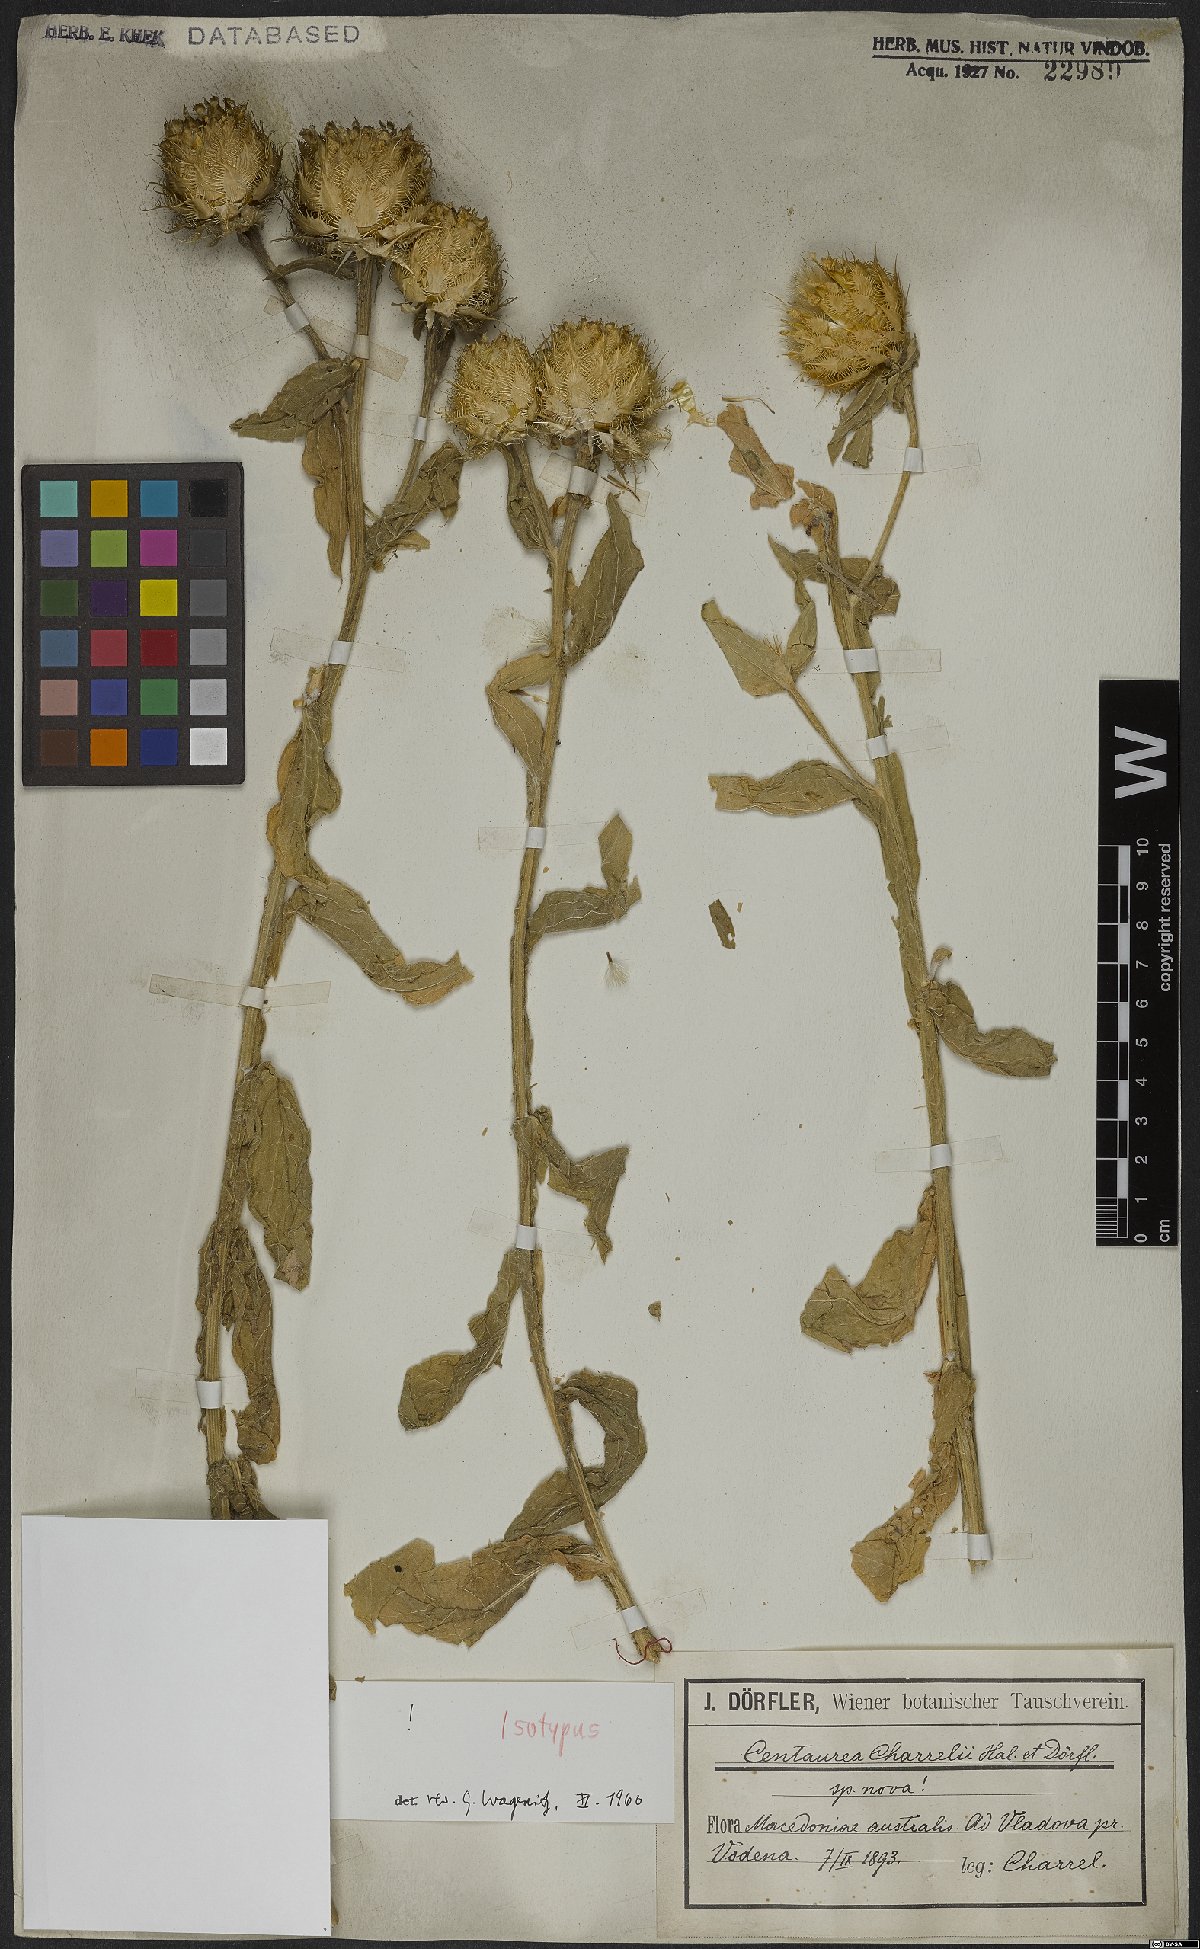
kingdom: Plantae
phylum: Tracheophyta
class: Magnoliopsida
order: Asterales
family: Asteraceae
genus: Centaurea
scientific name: Centaurea charrelii
